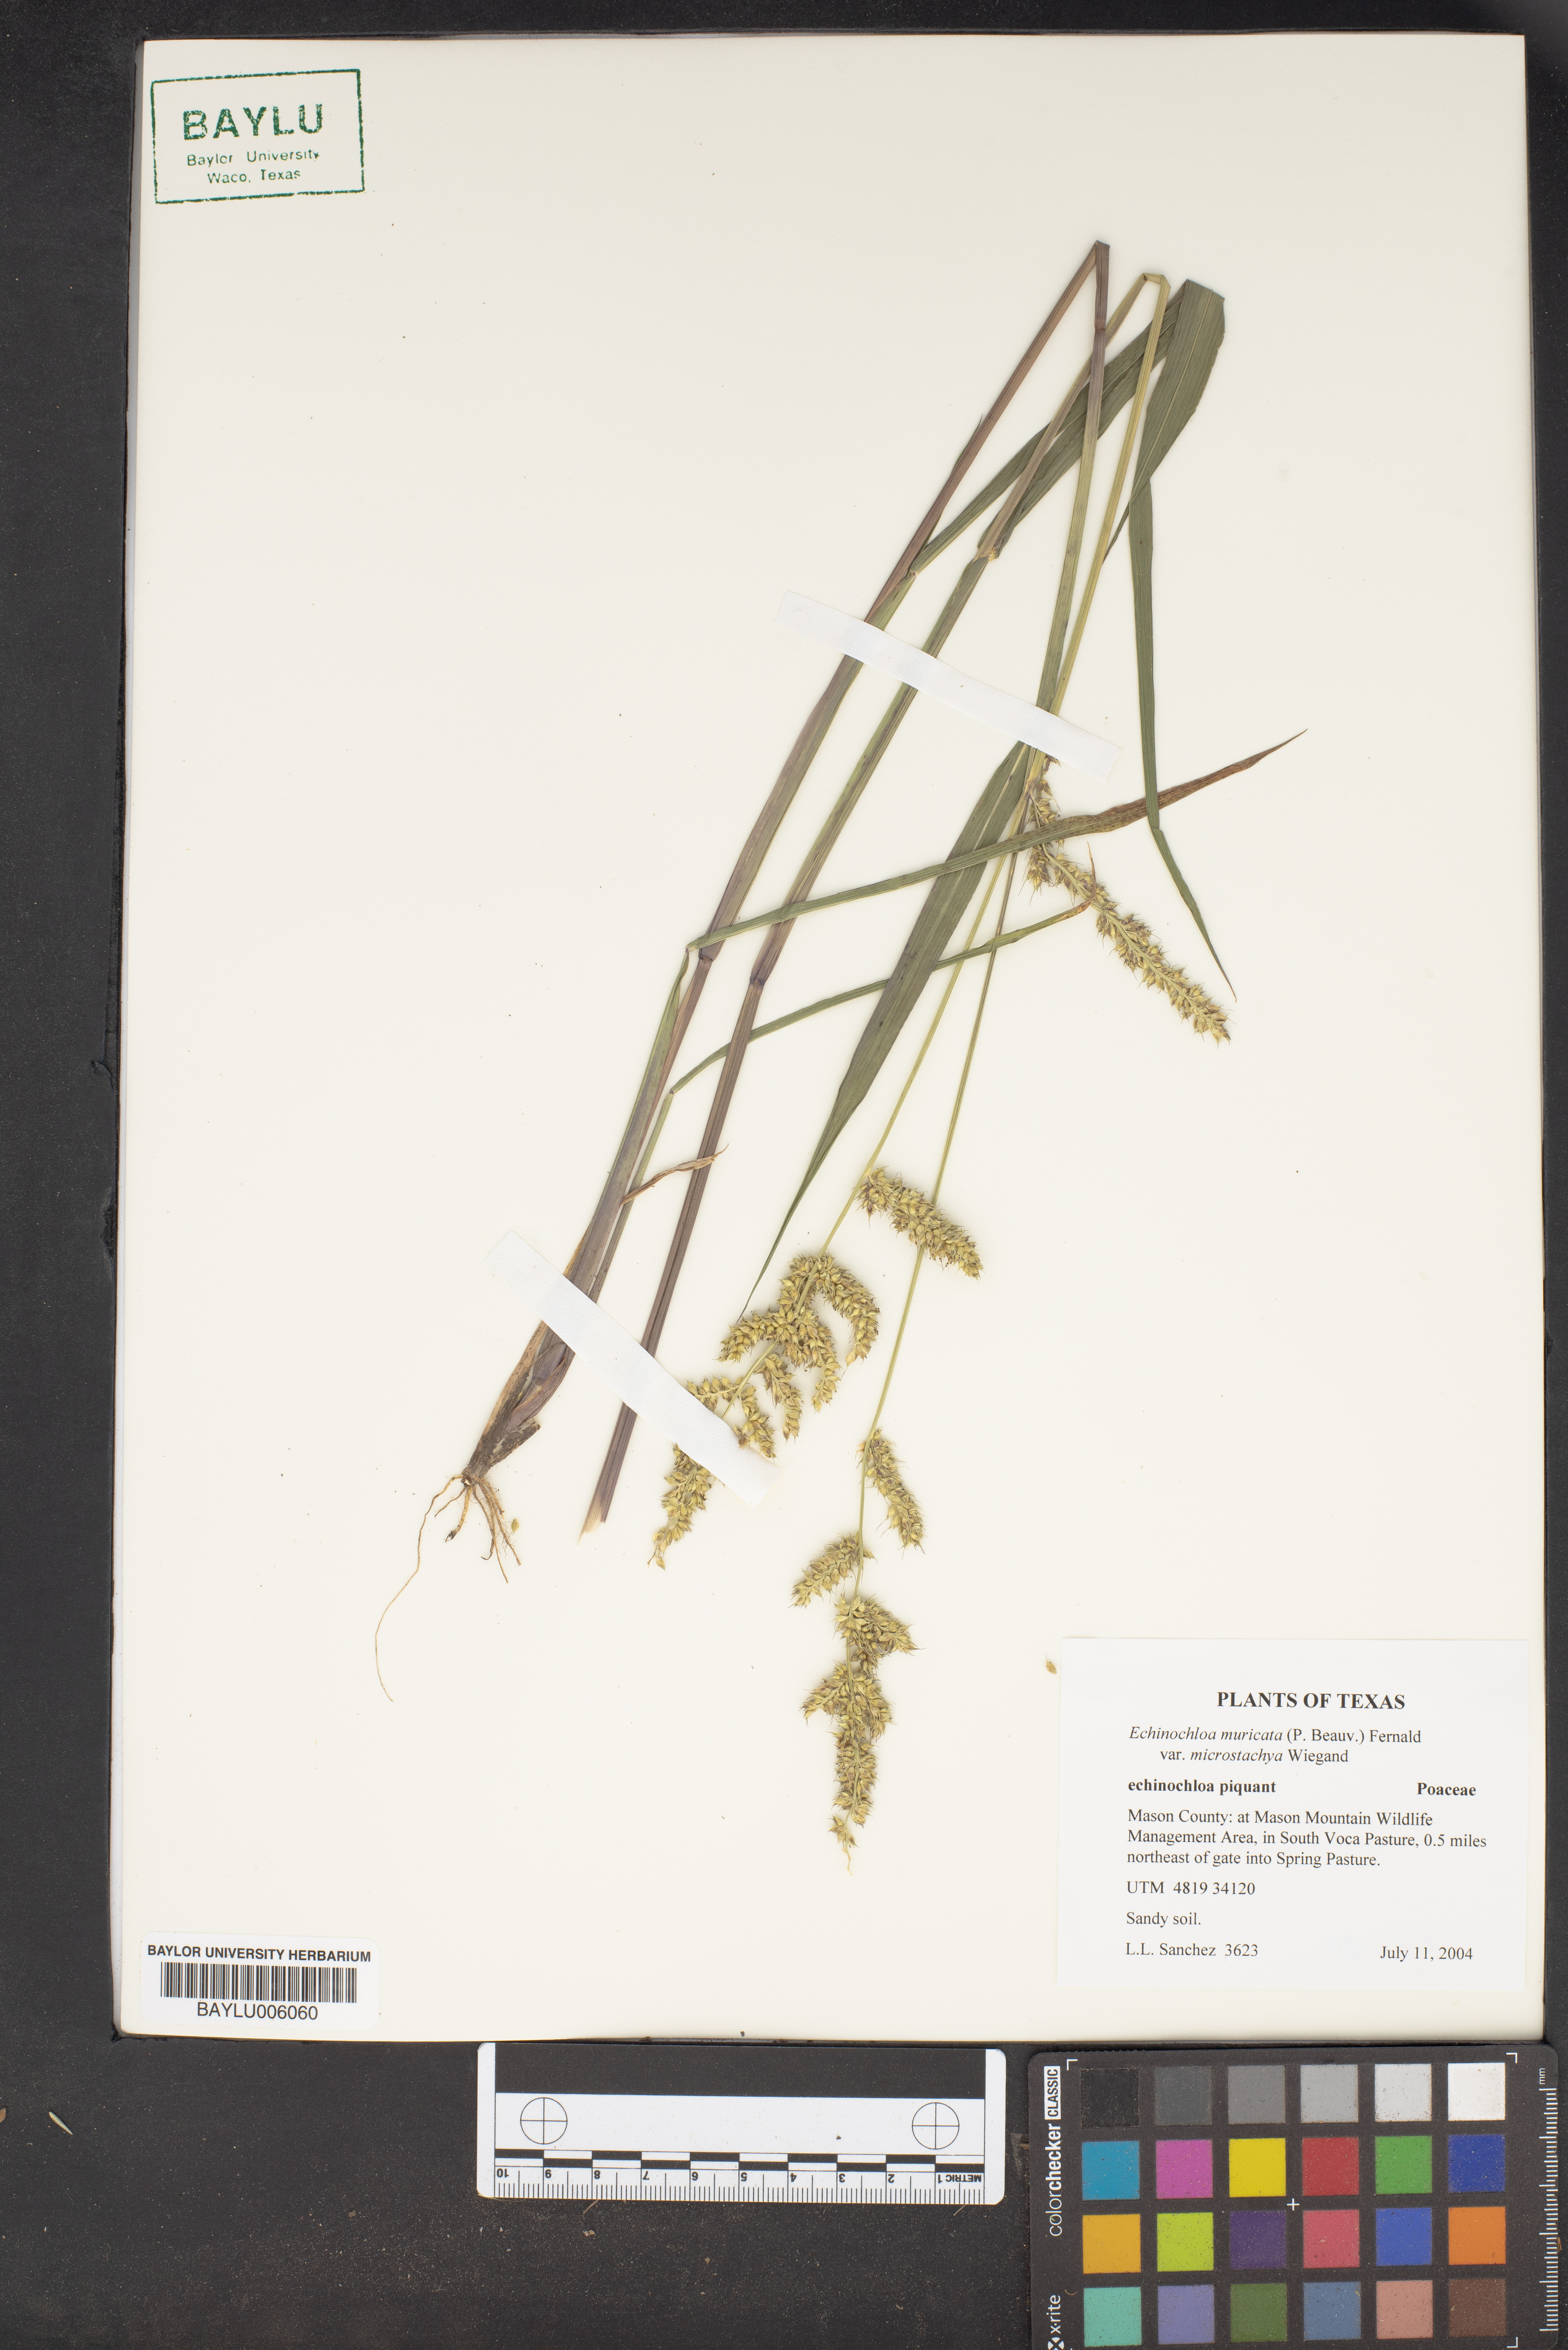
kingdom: Plantae
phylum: Tracheophyta
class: Liliopsida
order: Poales
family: Poaceae
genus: Echinochloa
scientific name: Echinochloa muricata
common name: American barnyard grass
